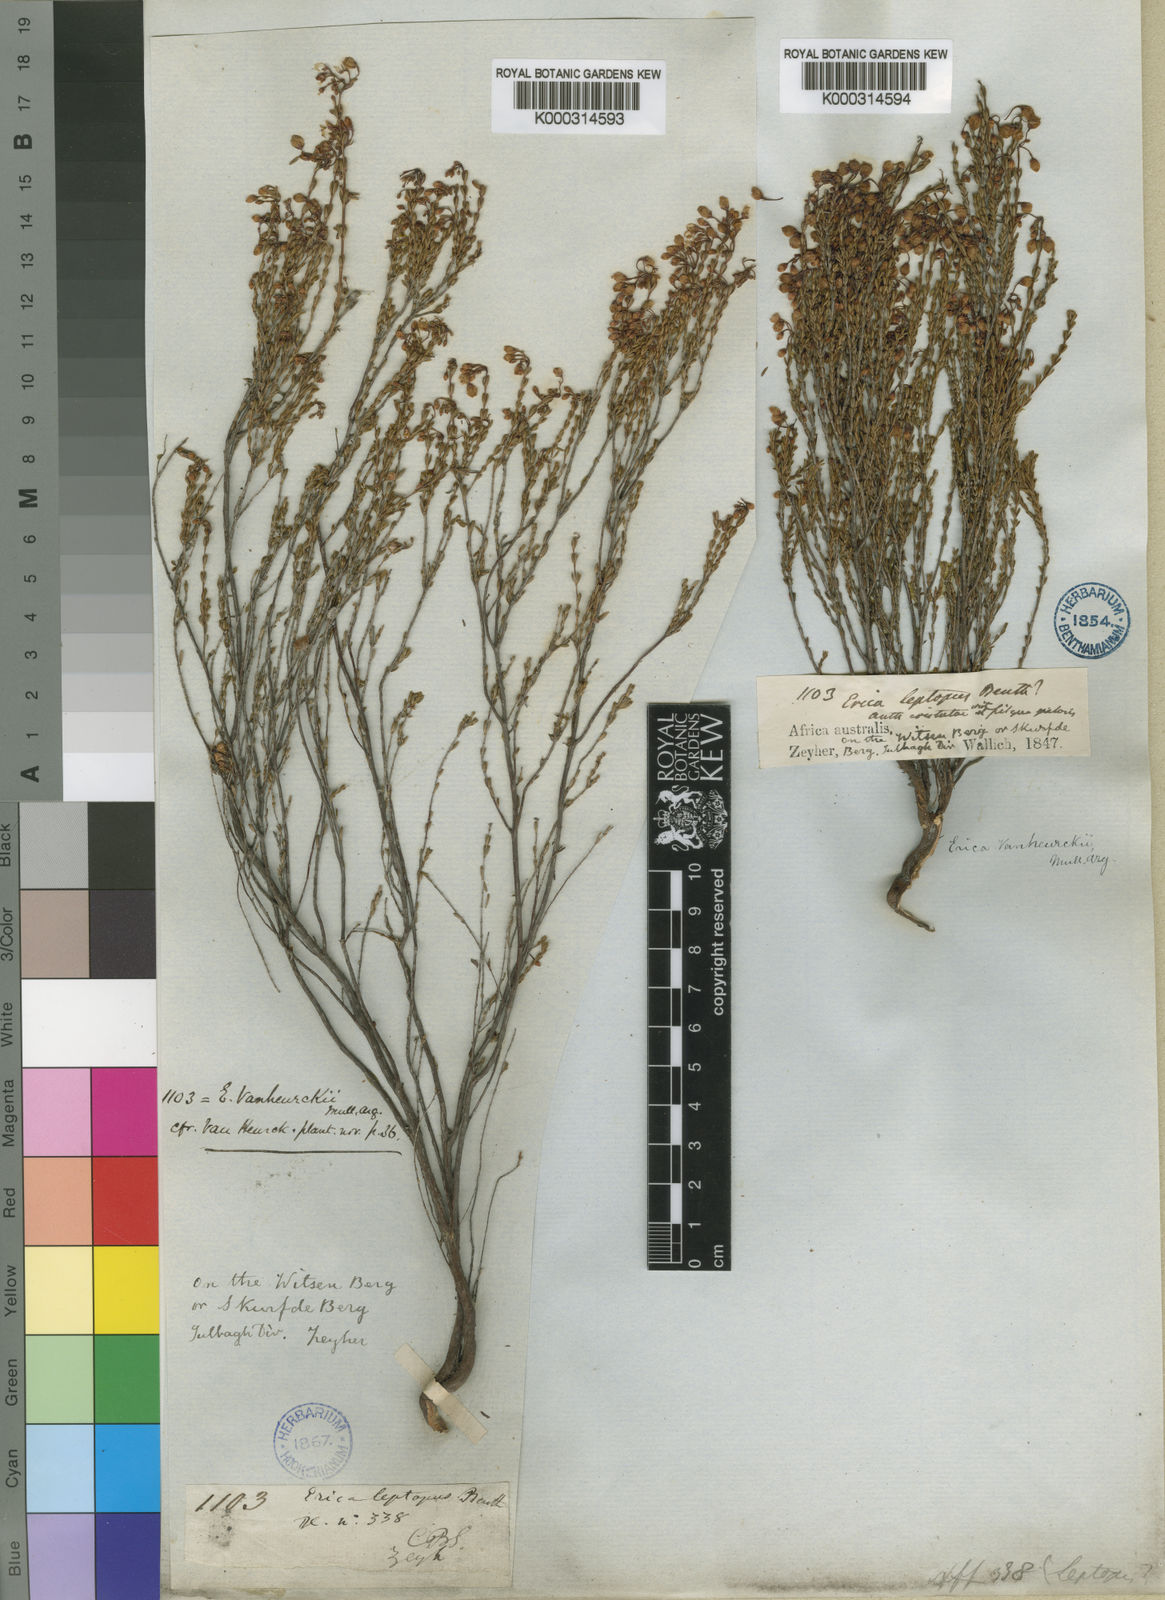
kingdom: Plantae
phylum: Tracheophyta
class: Magnoliopsida
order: Ericales
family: Ericaceae
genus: Erica
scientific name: Erica
